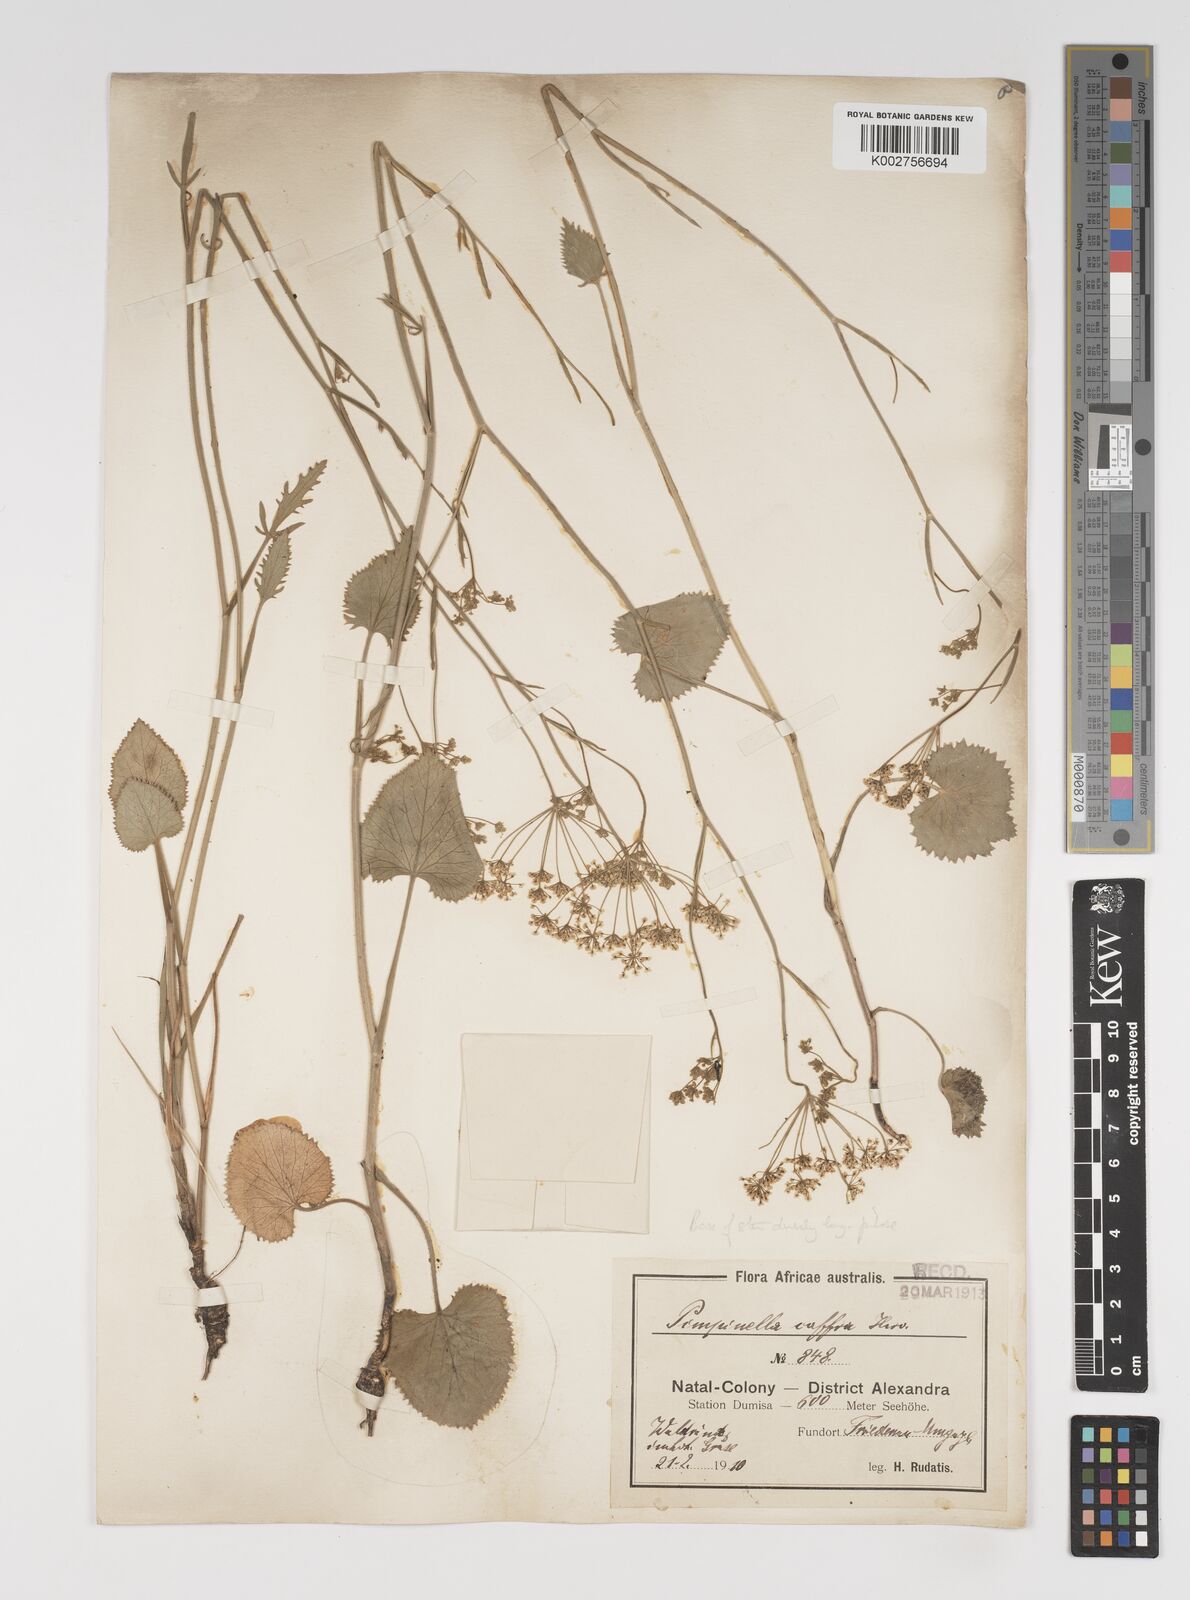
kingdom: Plantae
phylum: Tracheophyta
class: Magnoliopsida
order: Apiales
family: Apiaceae
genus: Pimpinella
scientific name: Pimpinella
